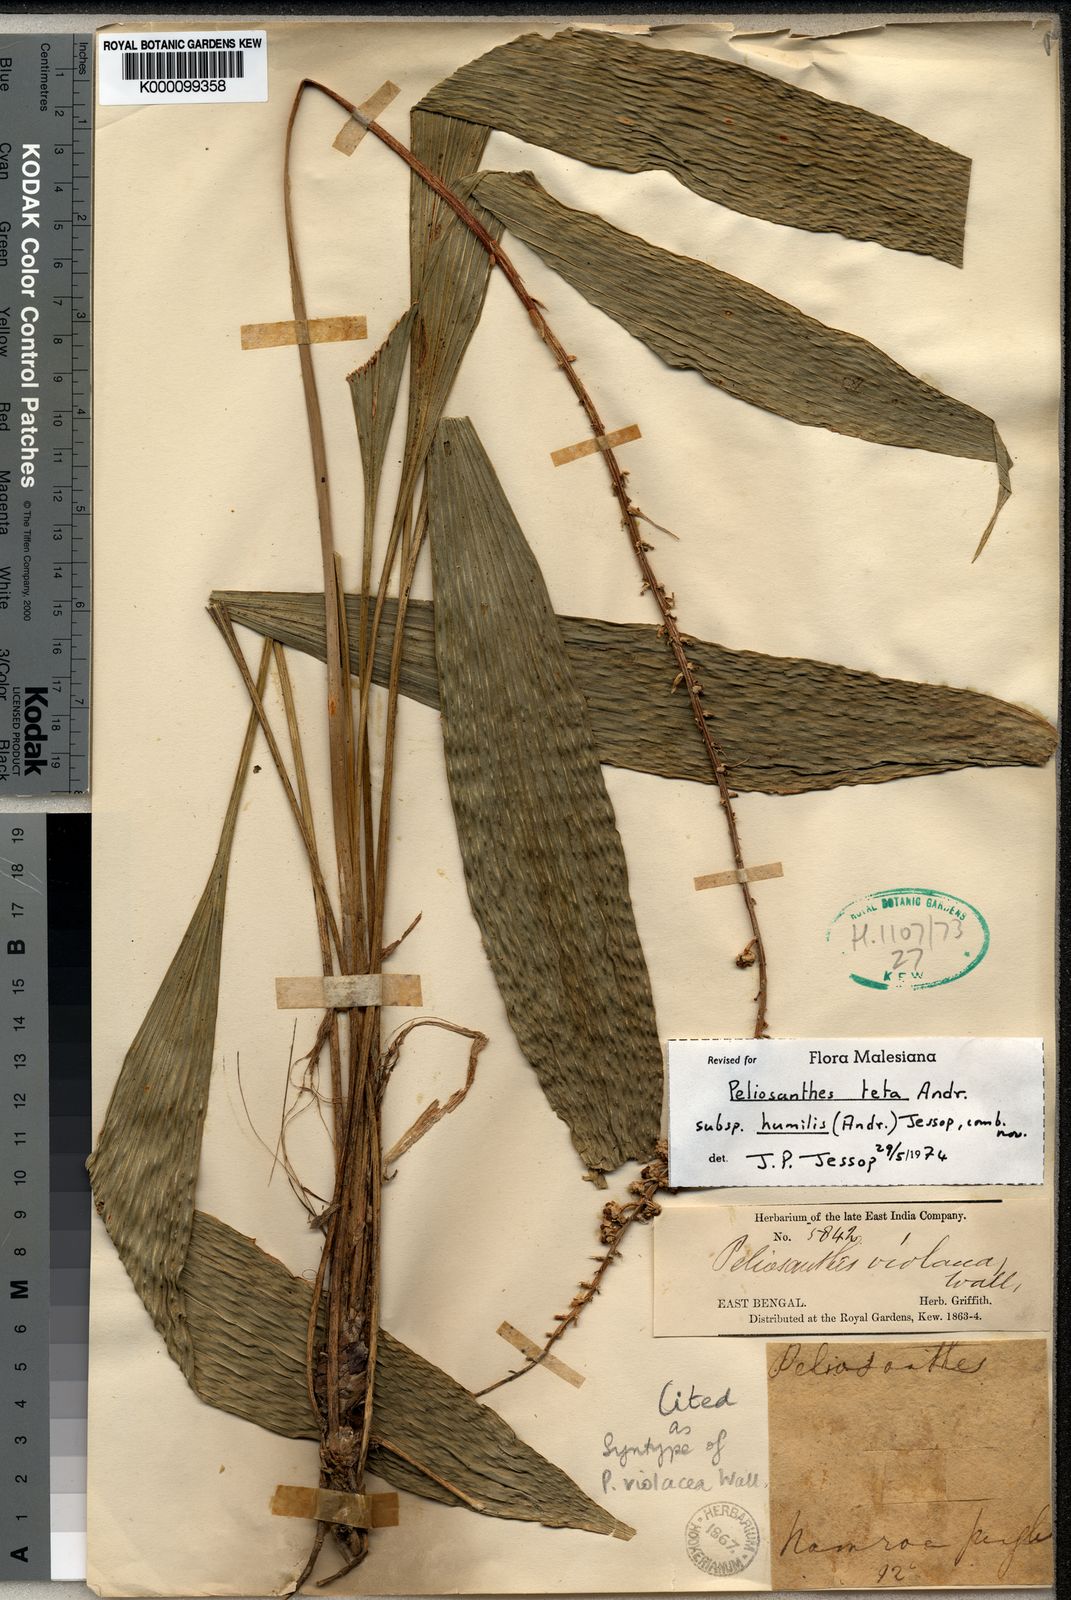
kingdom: Plantae
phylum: Tracheophyta
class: Liliopsida
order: Asparagales
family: Asparagaceae
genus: Peliosanthes
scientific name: Peliosanthes macrophylla
